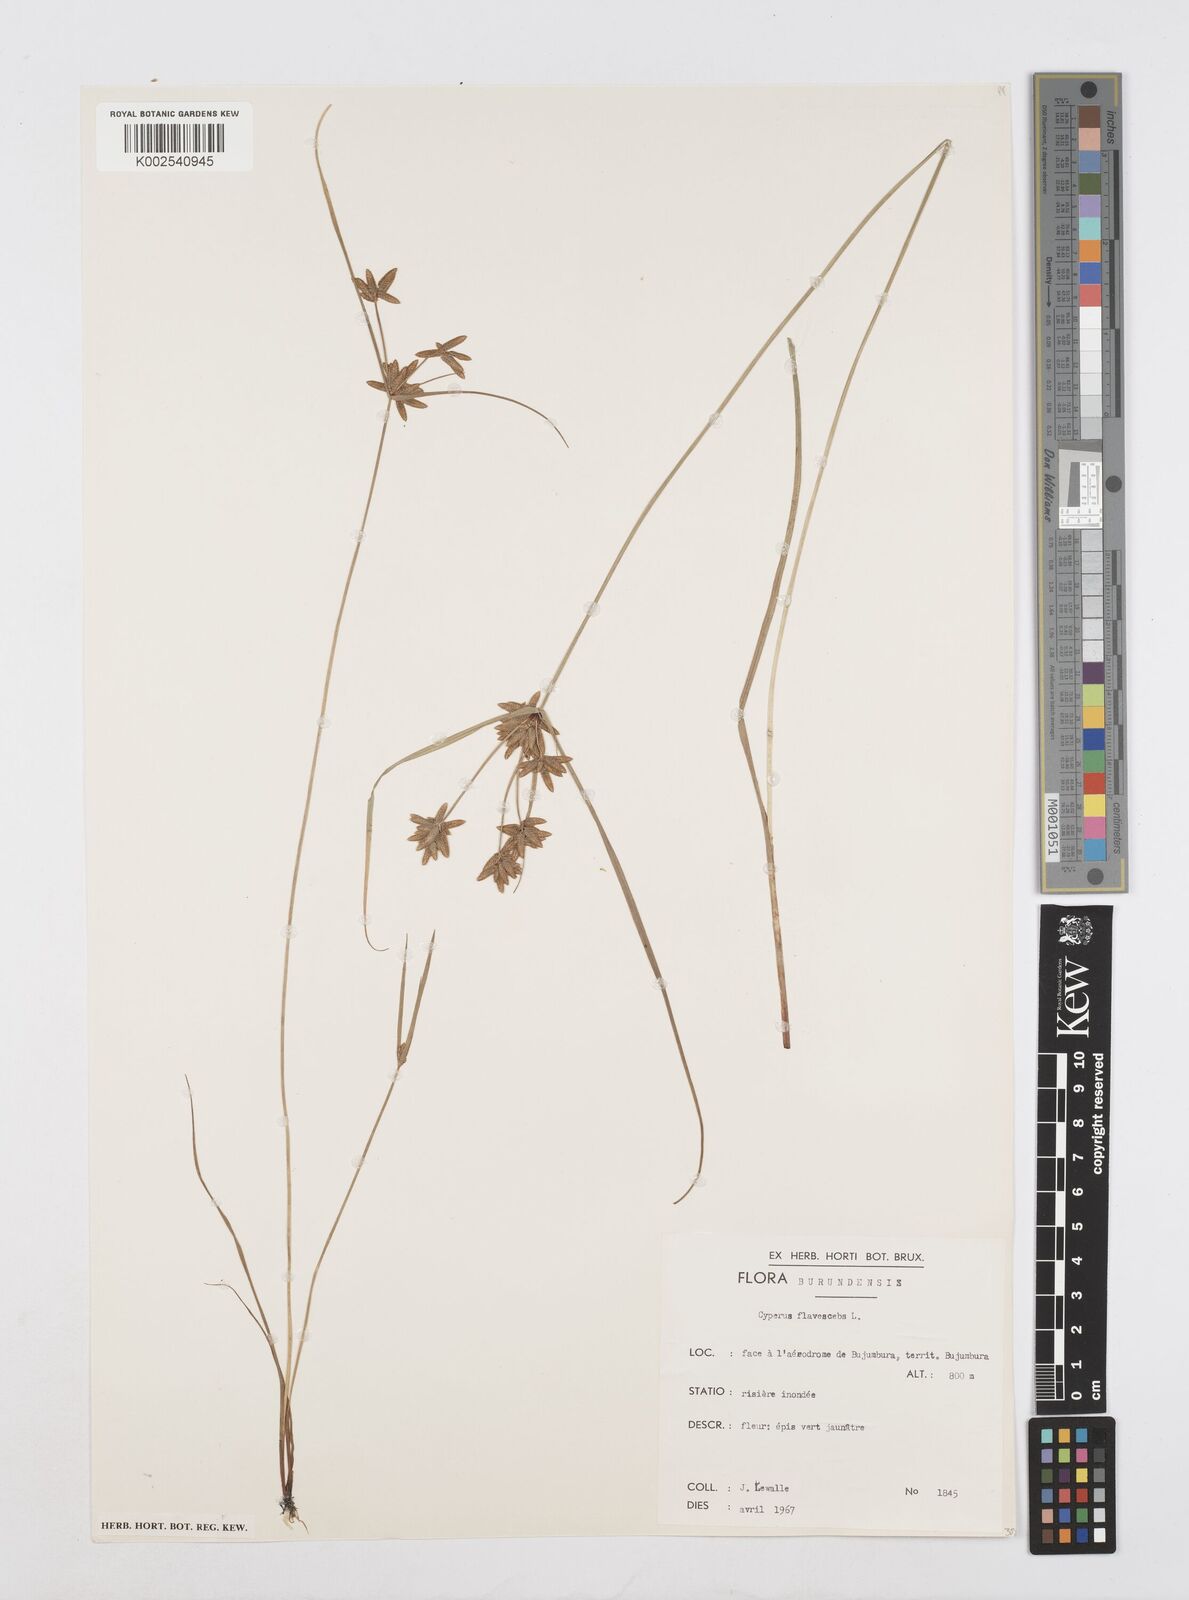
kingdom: Plantae
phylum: Tracheophyta
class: Liliopsida
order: Poales
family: Cyperaceae
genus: Cyperus
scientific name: Cyperus flavescens
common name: Yellow galingale
